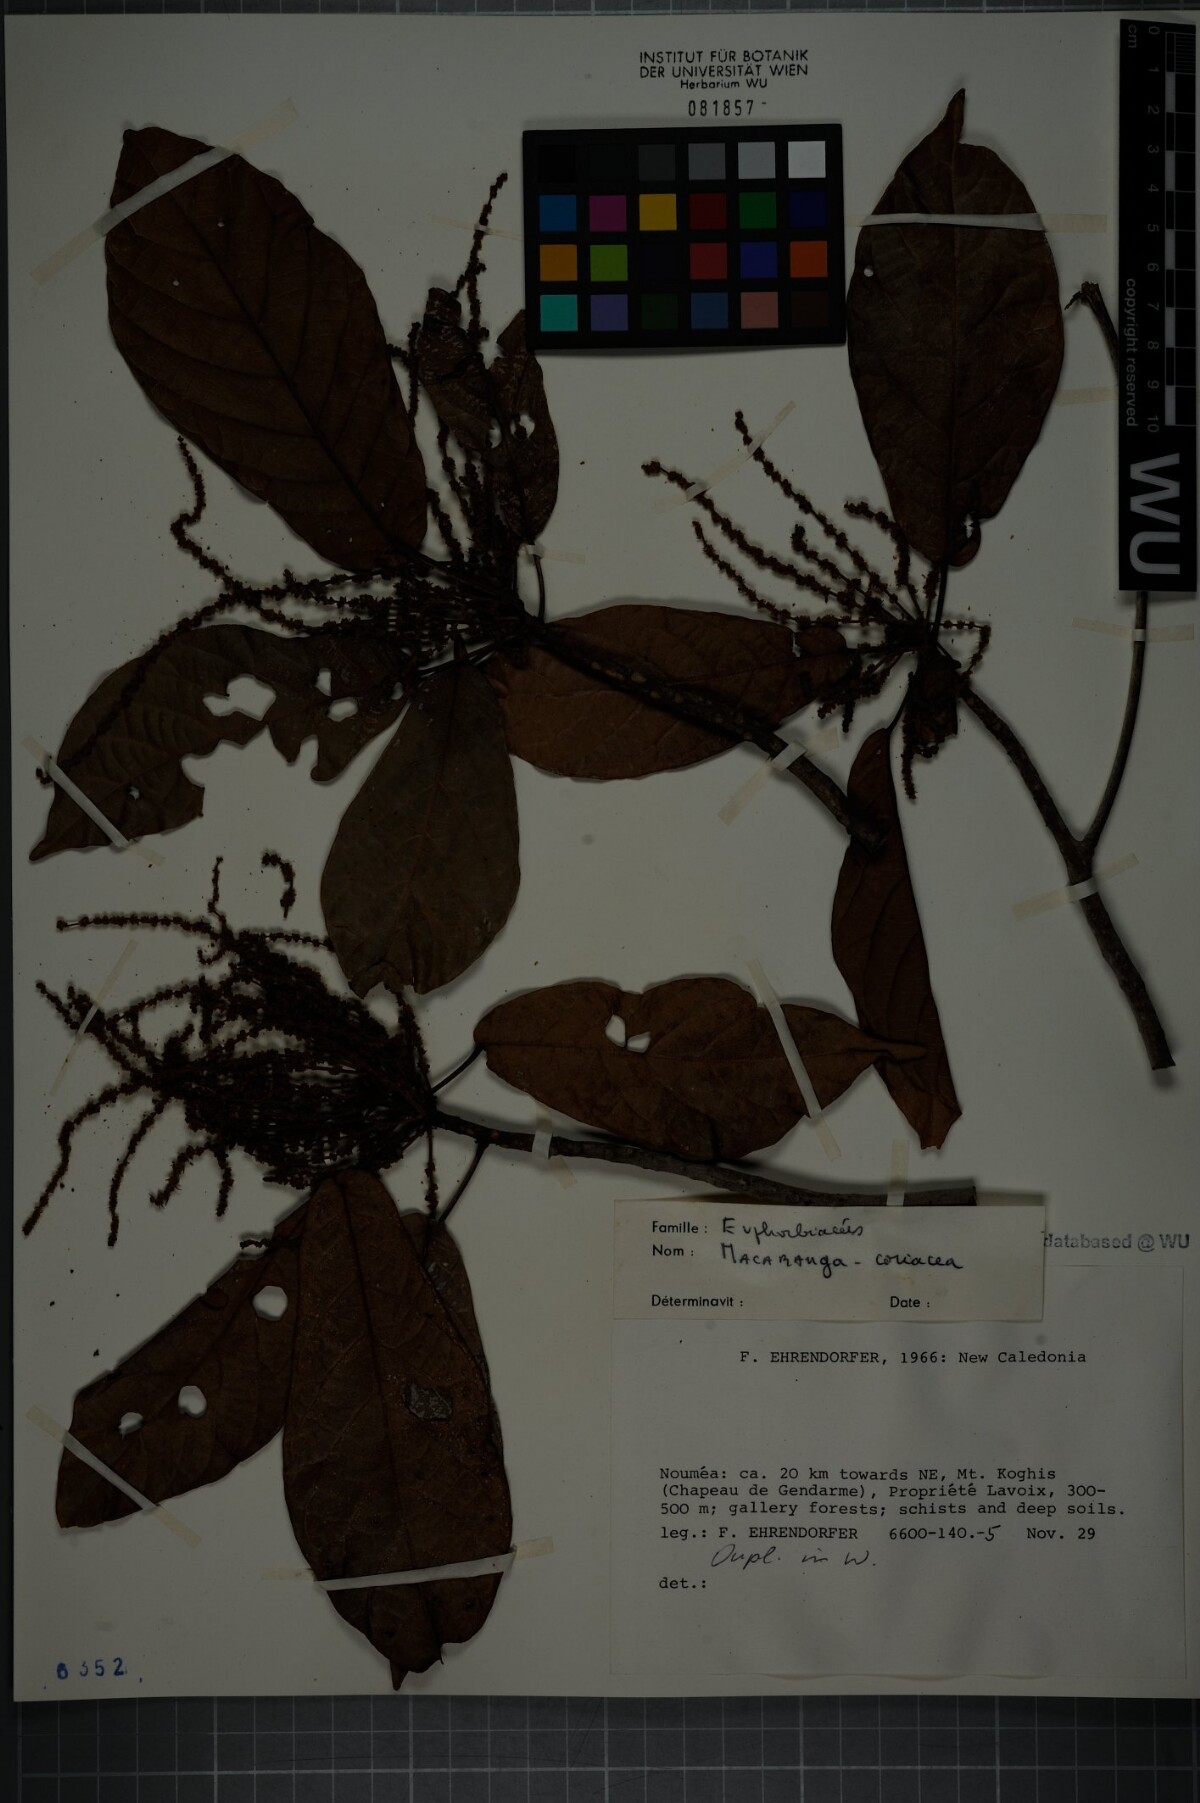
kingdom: Plantae
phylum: Tracheophyta
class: Magnoliopsida
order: Malpighiales
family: Euphorbiaceae
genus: Macaranga
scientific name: Macaranga coriacea
